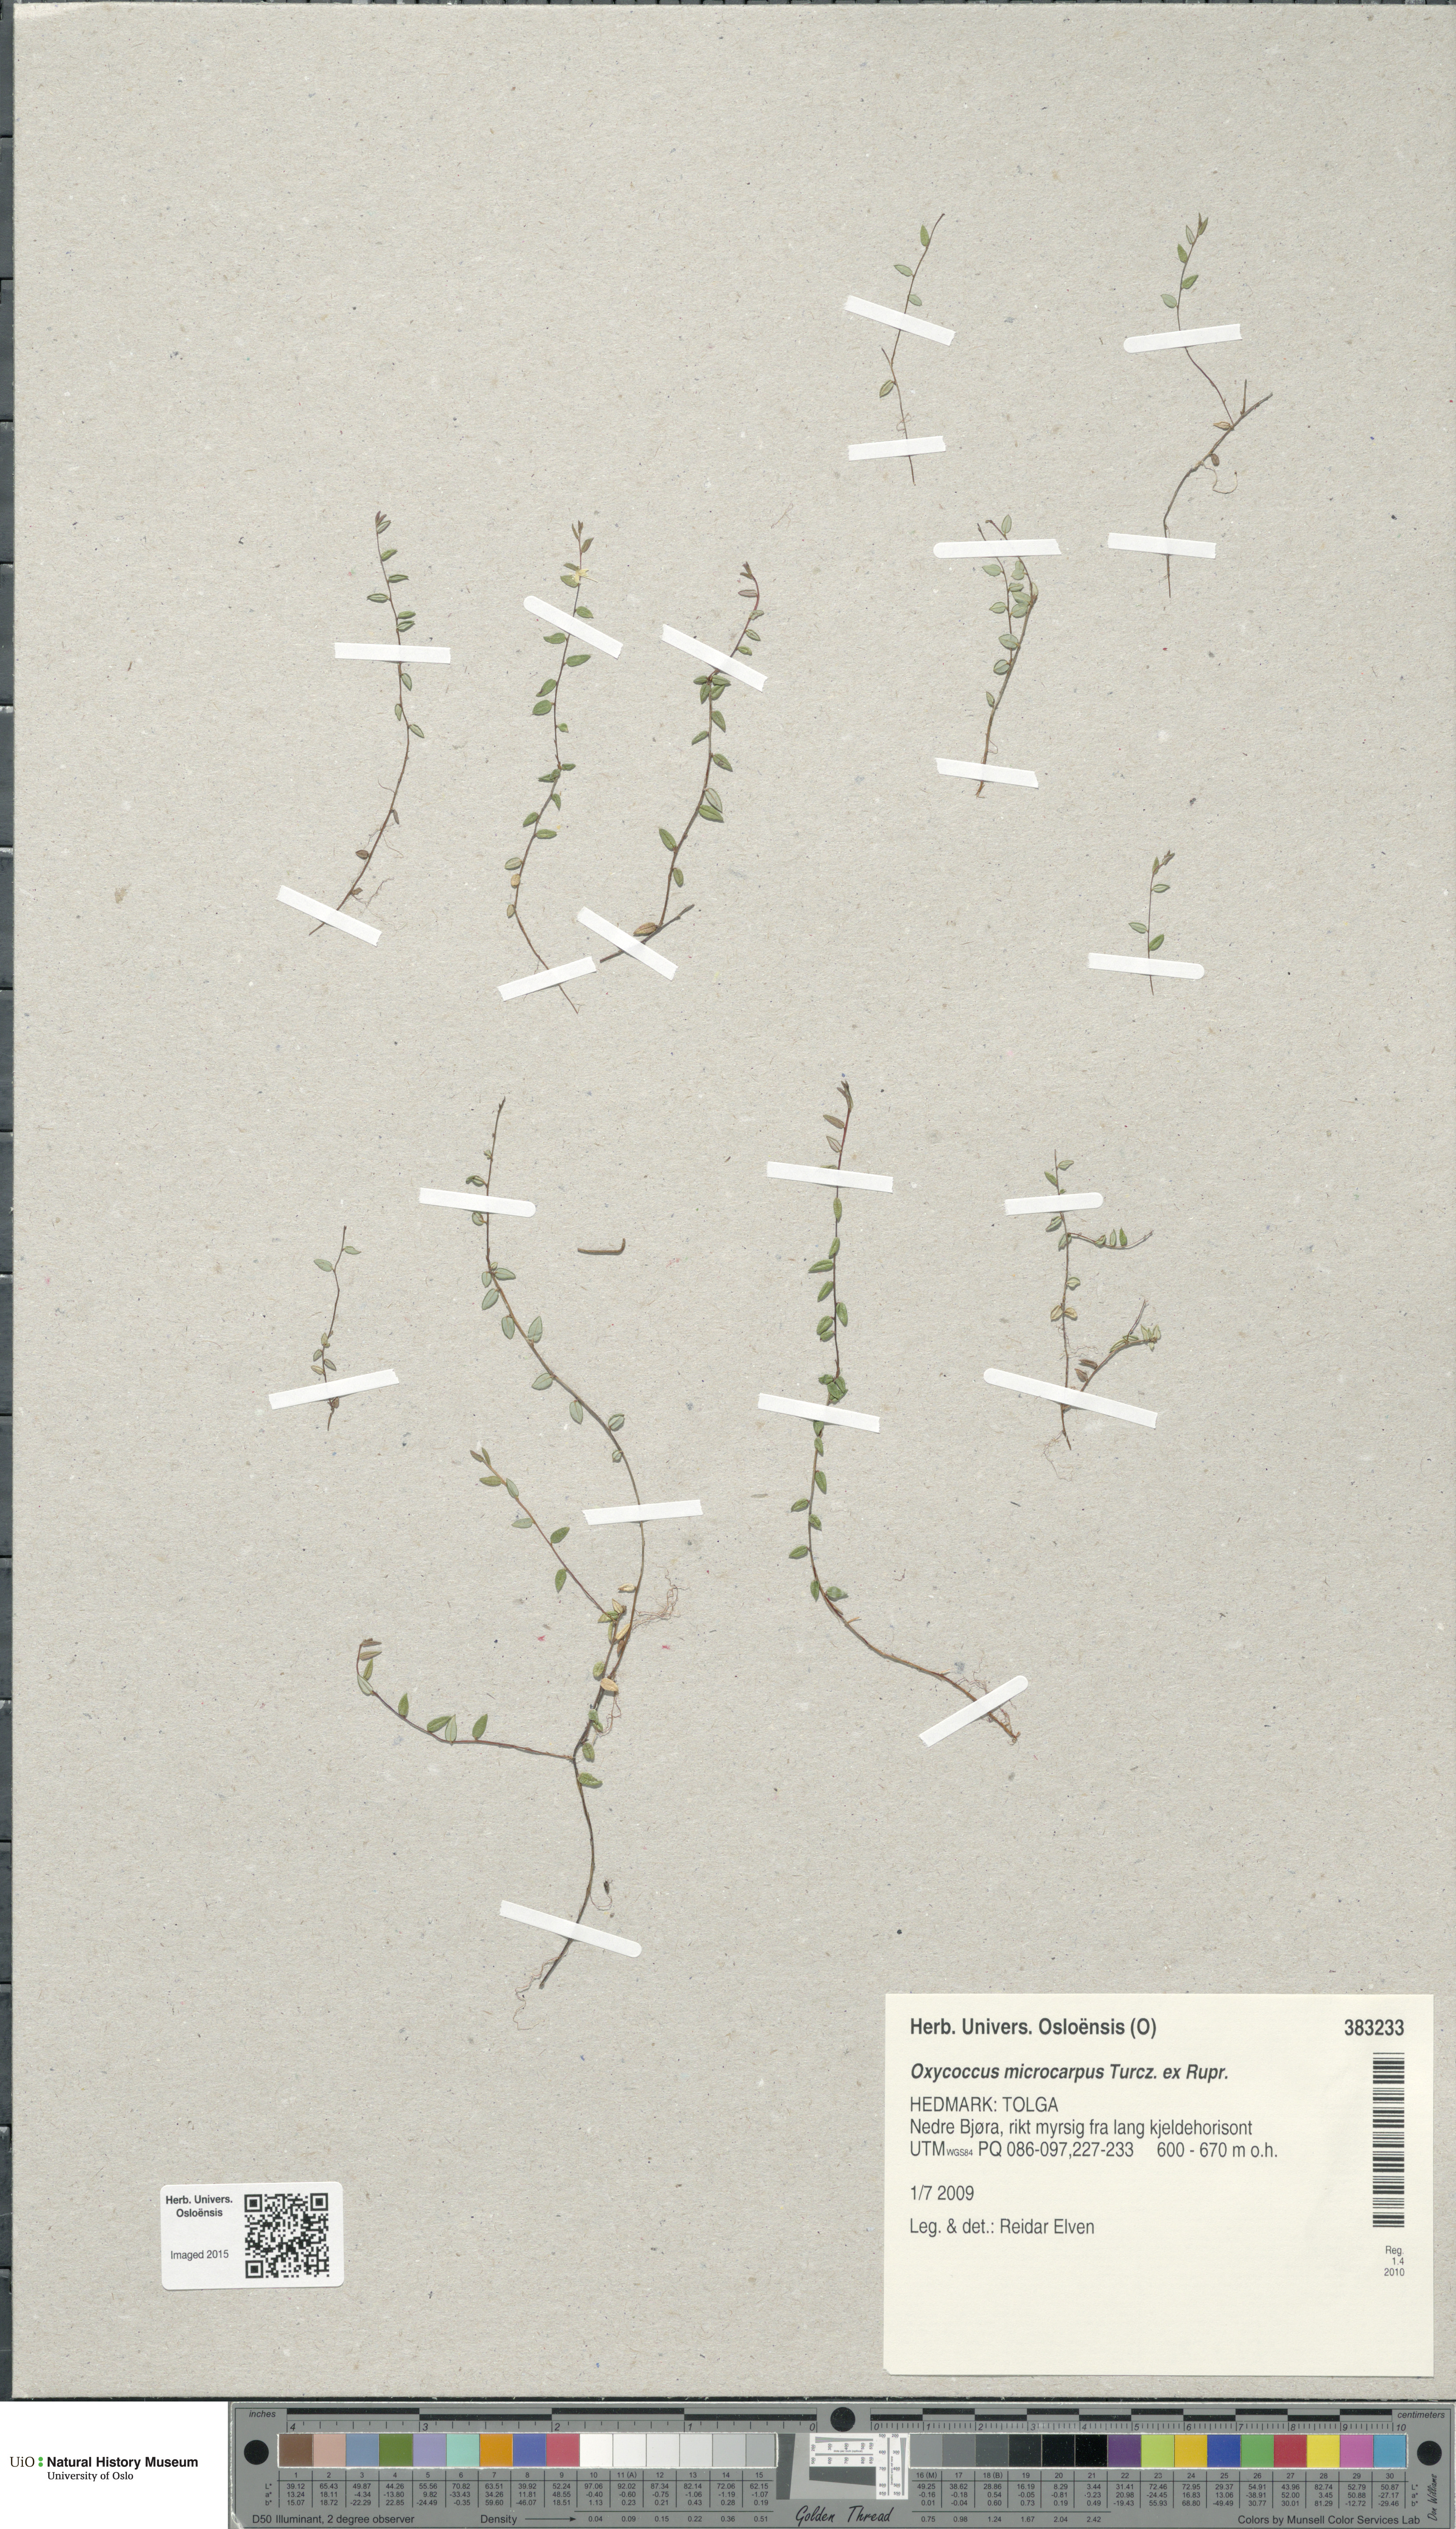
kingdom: Plantae
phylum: Tracheophyta
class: Magnoliopsida
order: Ericales
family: Ericaceae
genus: Vaccinium
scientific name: Vaccinium microcarpum
